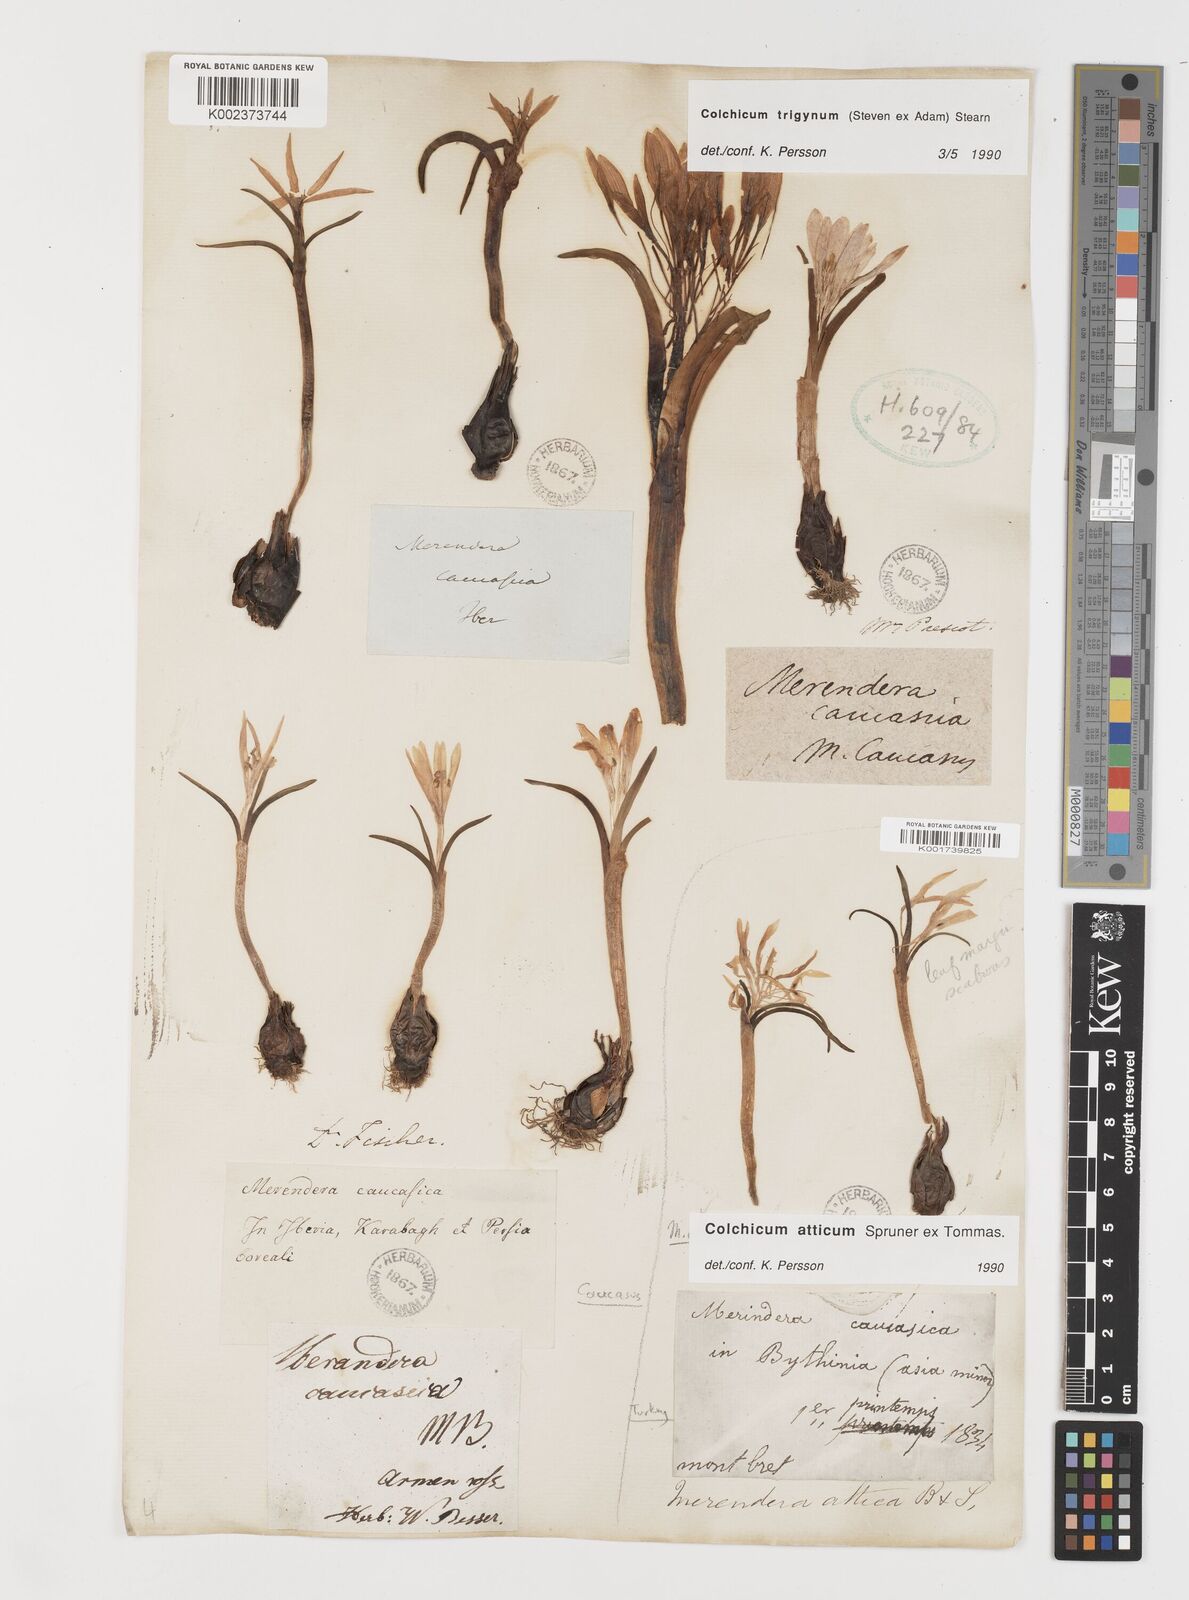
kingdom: Plantae
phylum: Tracheophyta
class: Liliopsida
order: Liliales
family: Colchicaceae
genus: Colchicum
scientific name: Colchicum atticum
